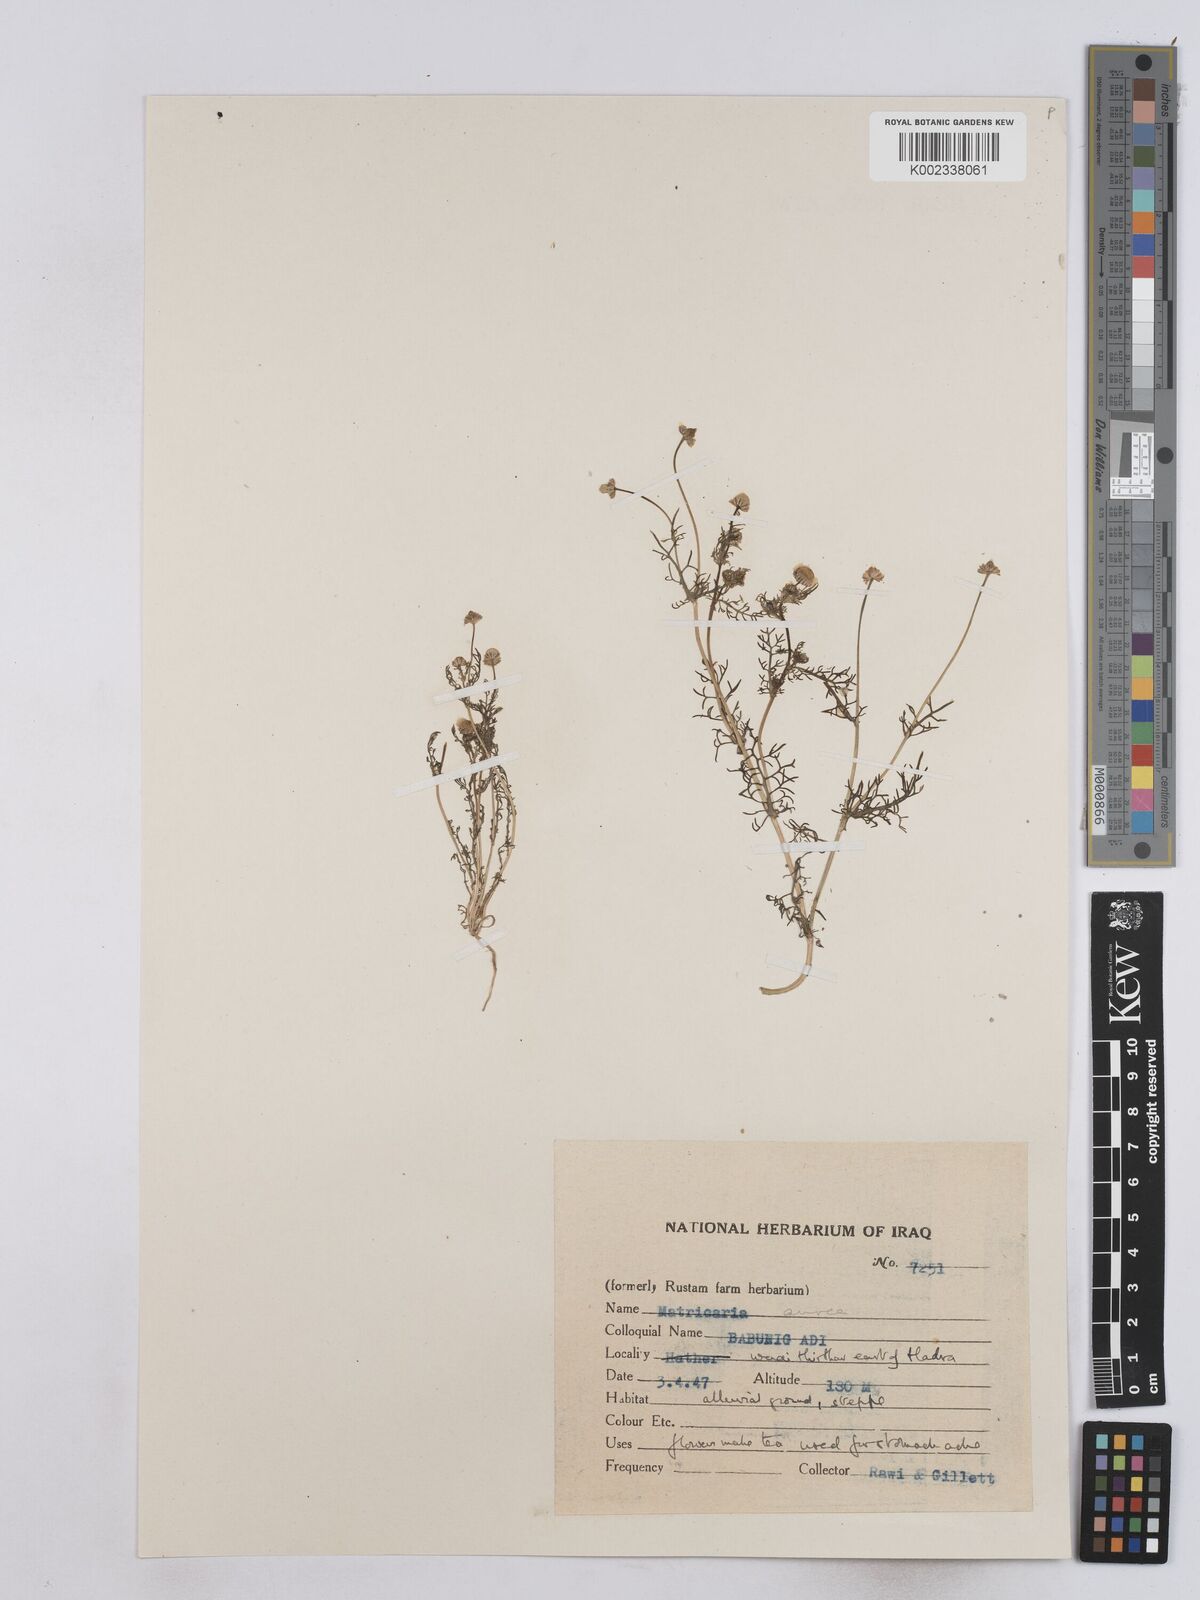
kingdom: Plantae
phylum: Tracheophyta
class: Magnoliopsida
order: Asterales
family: Asteraceae
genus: Matricaria
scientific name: Matricaria aurea
